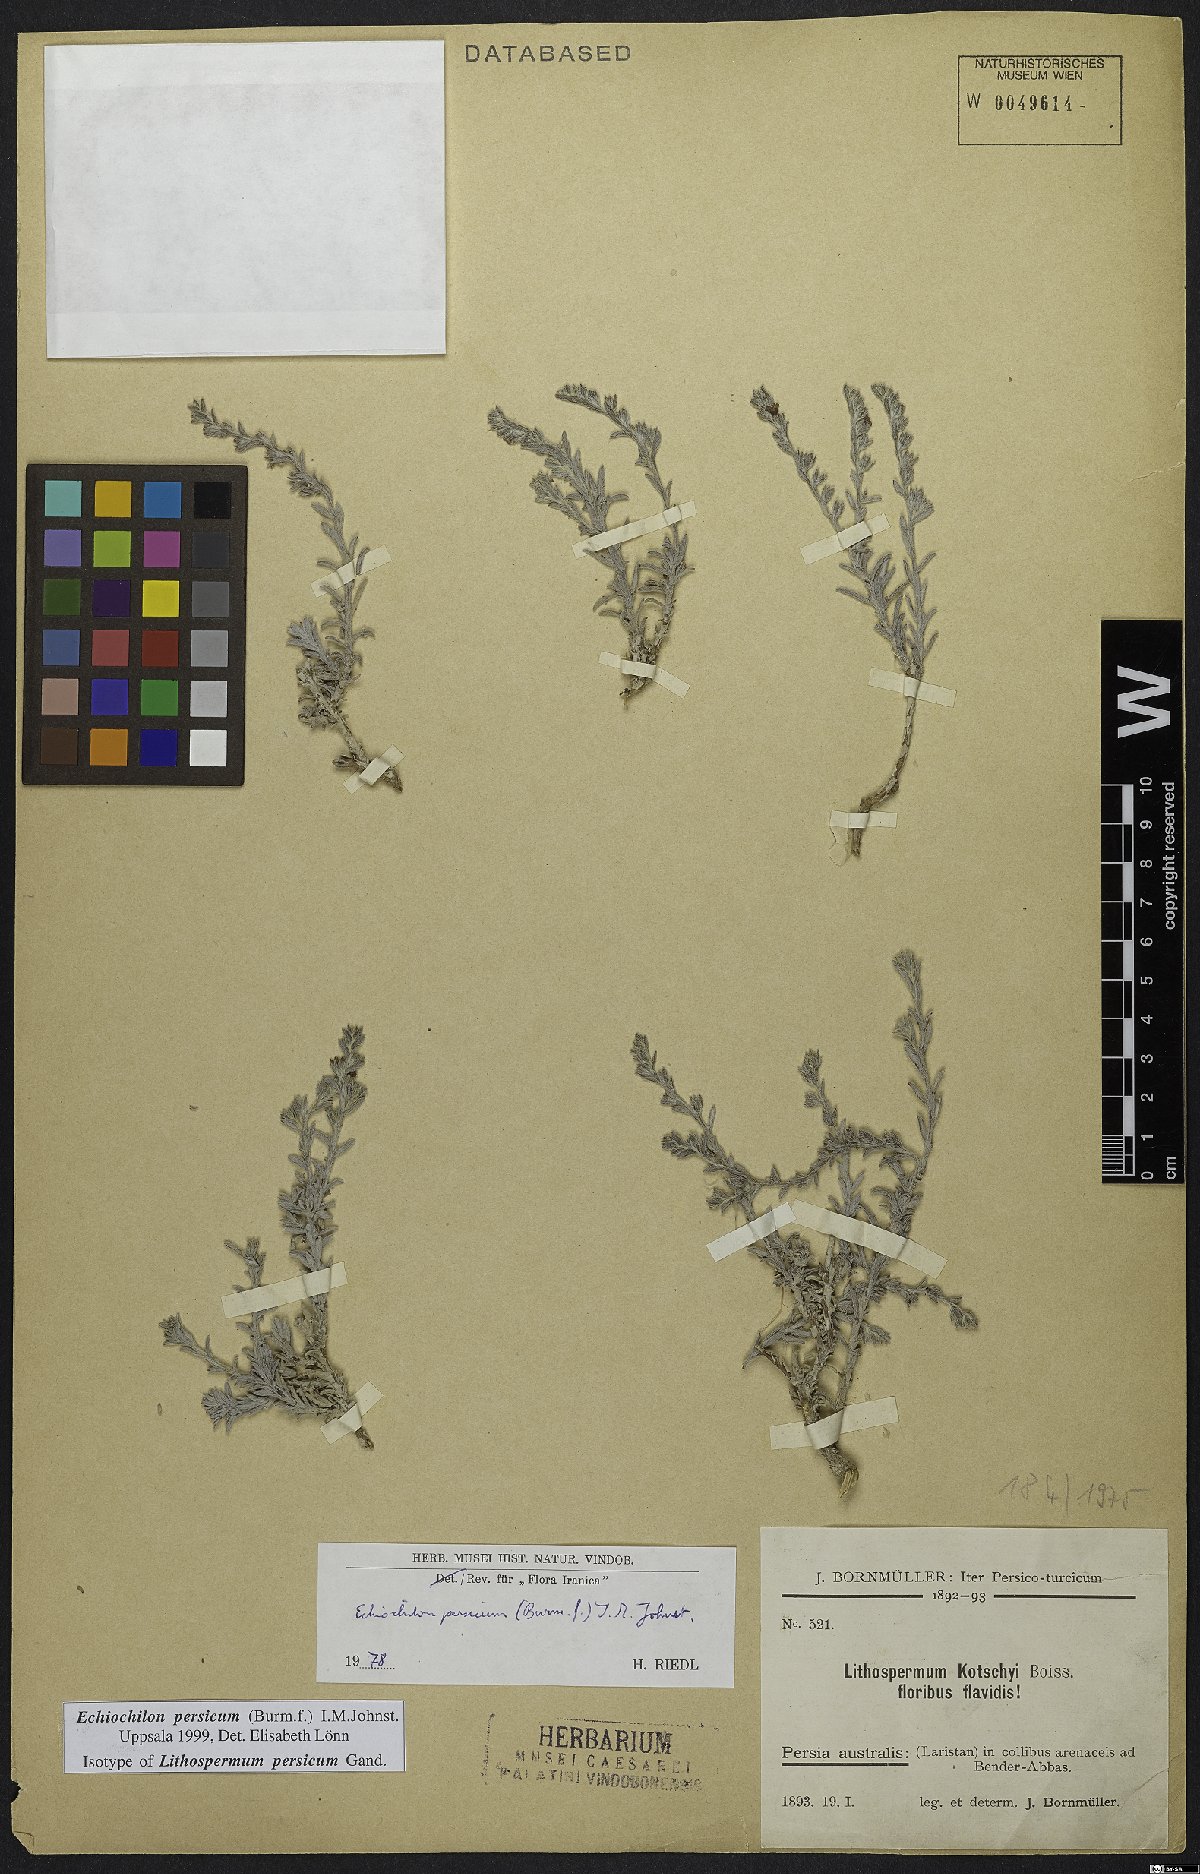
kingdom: Plantae
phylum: Tracheophyta
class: Magnoliopsida
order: Boraginales
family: Boraginaceae
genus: Echiochilon
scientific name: Echiochilon persicum
